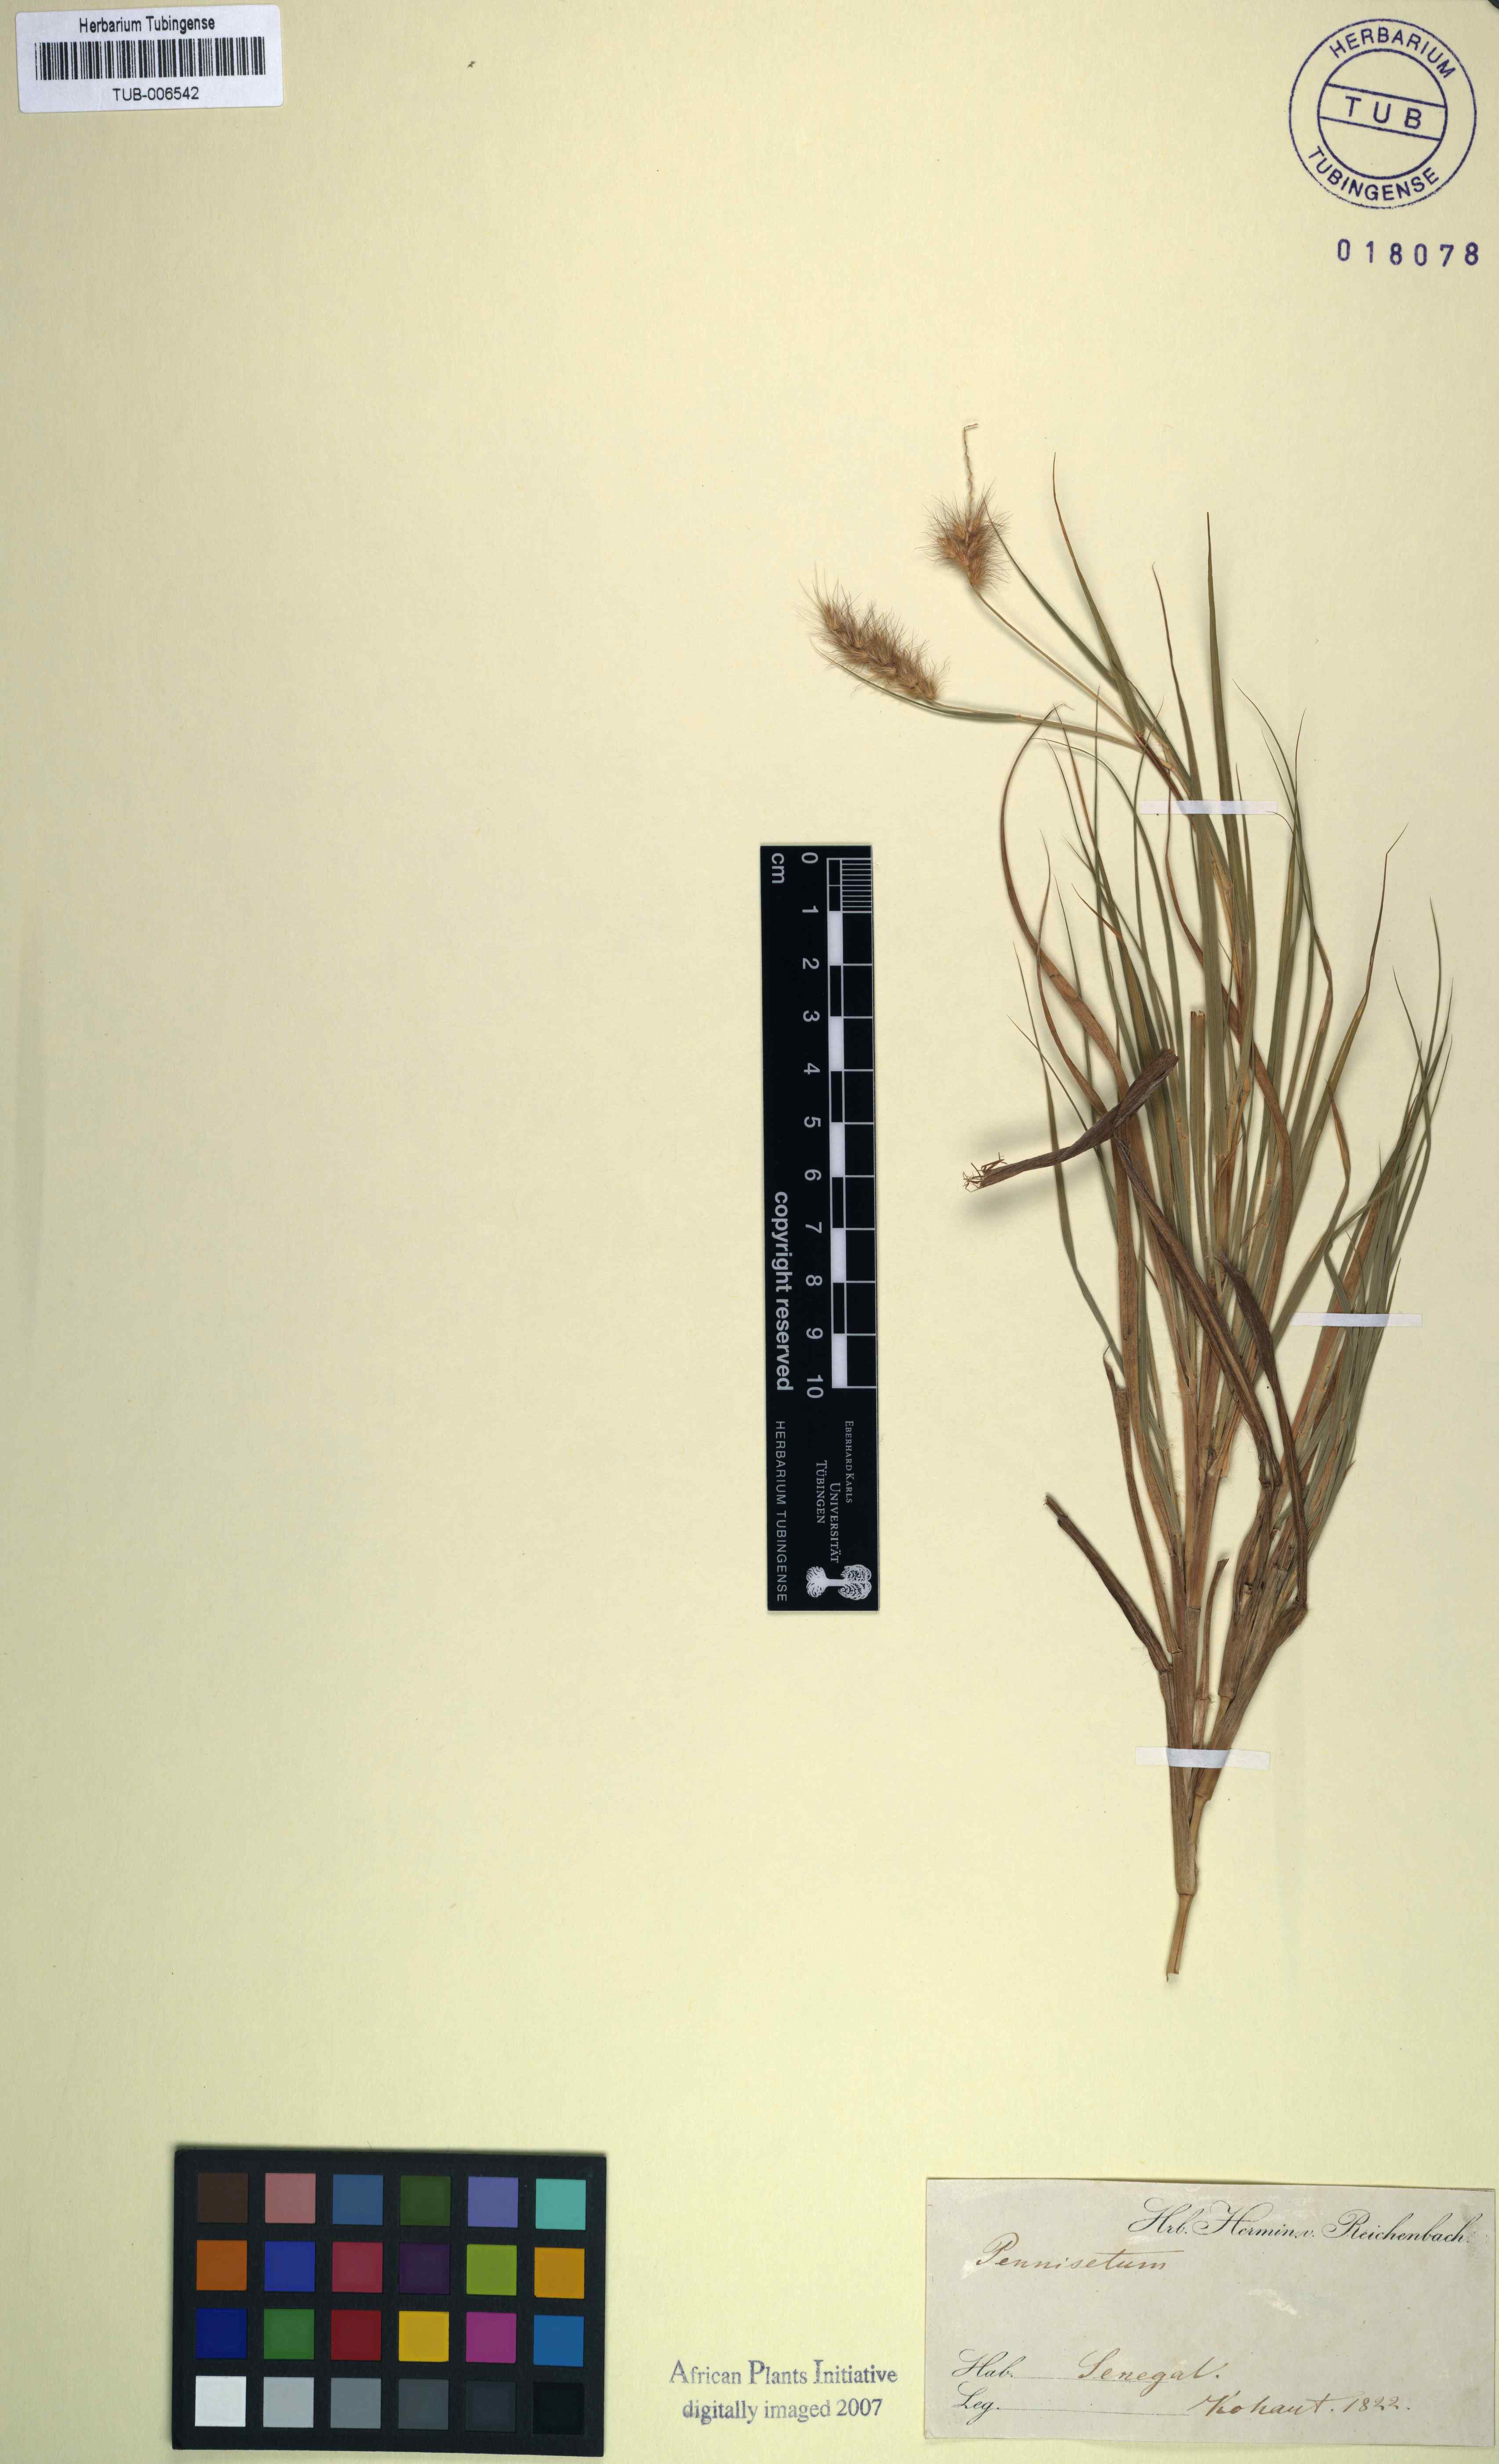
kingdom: Plantae
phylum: Tracheophyta
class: Liliopsida
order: Poales
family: Poaceae
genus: Cenchrus
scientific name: Cenchrus Pennisetum spec
